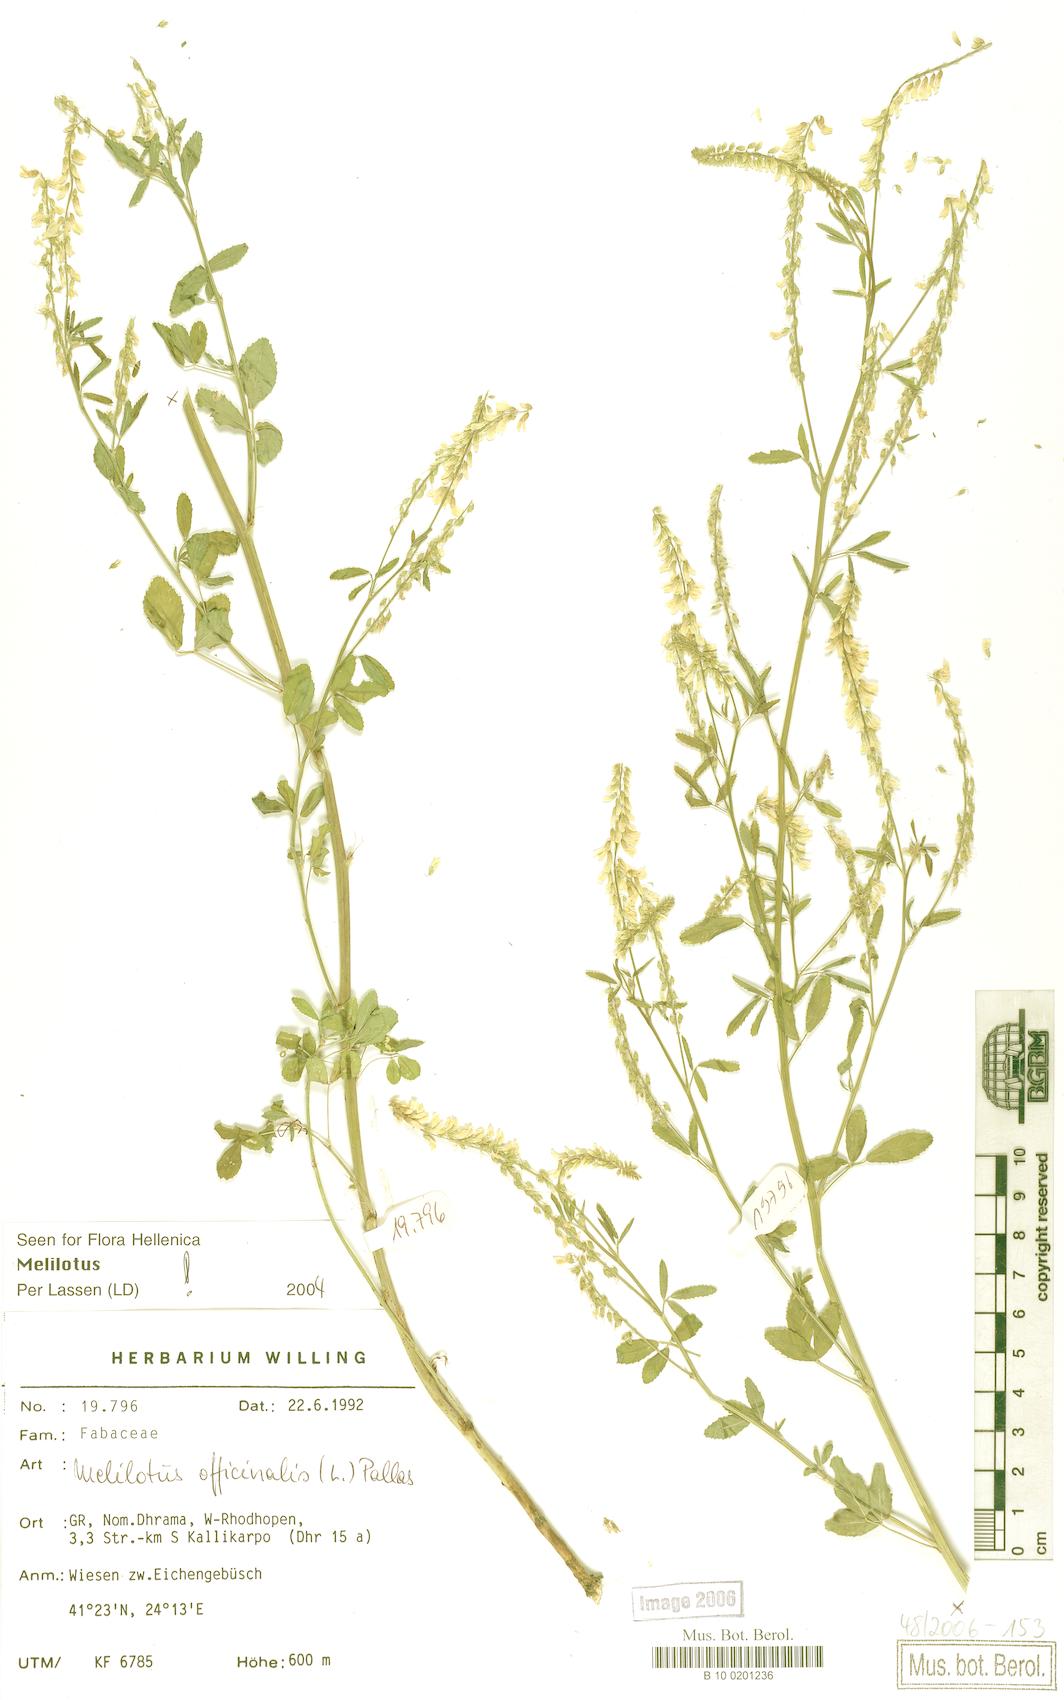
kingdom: Plantae
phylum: Tracheophyta
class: Magnoliopsida
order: Fabales
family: Fabaceae
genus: Melilotus
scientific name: Melilotus officinalis
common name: Sweetclover
